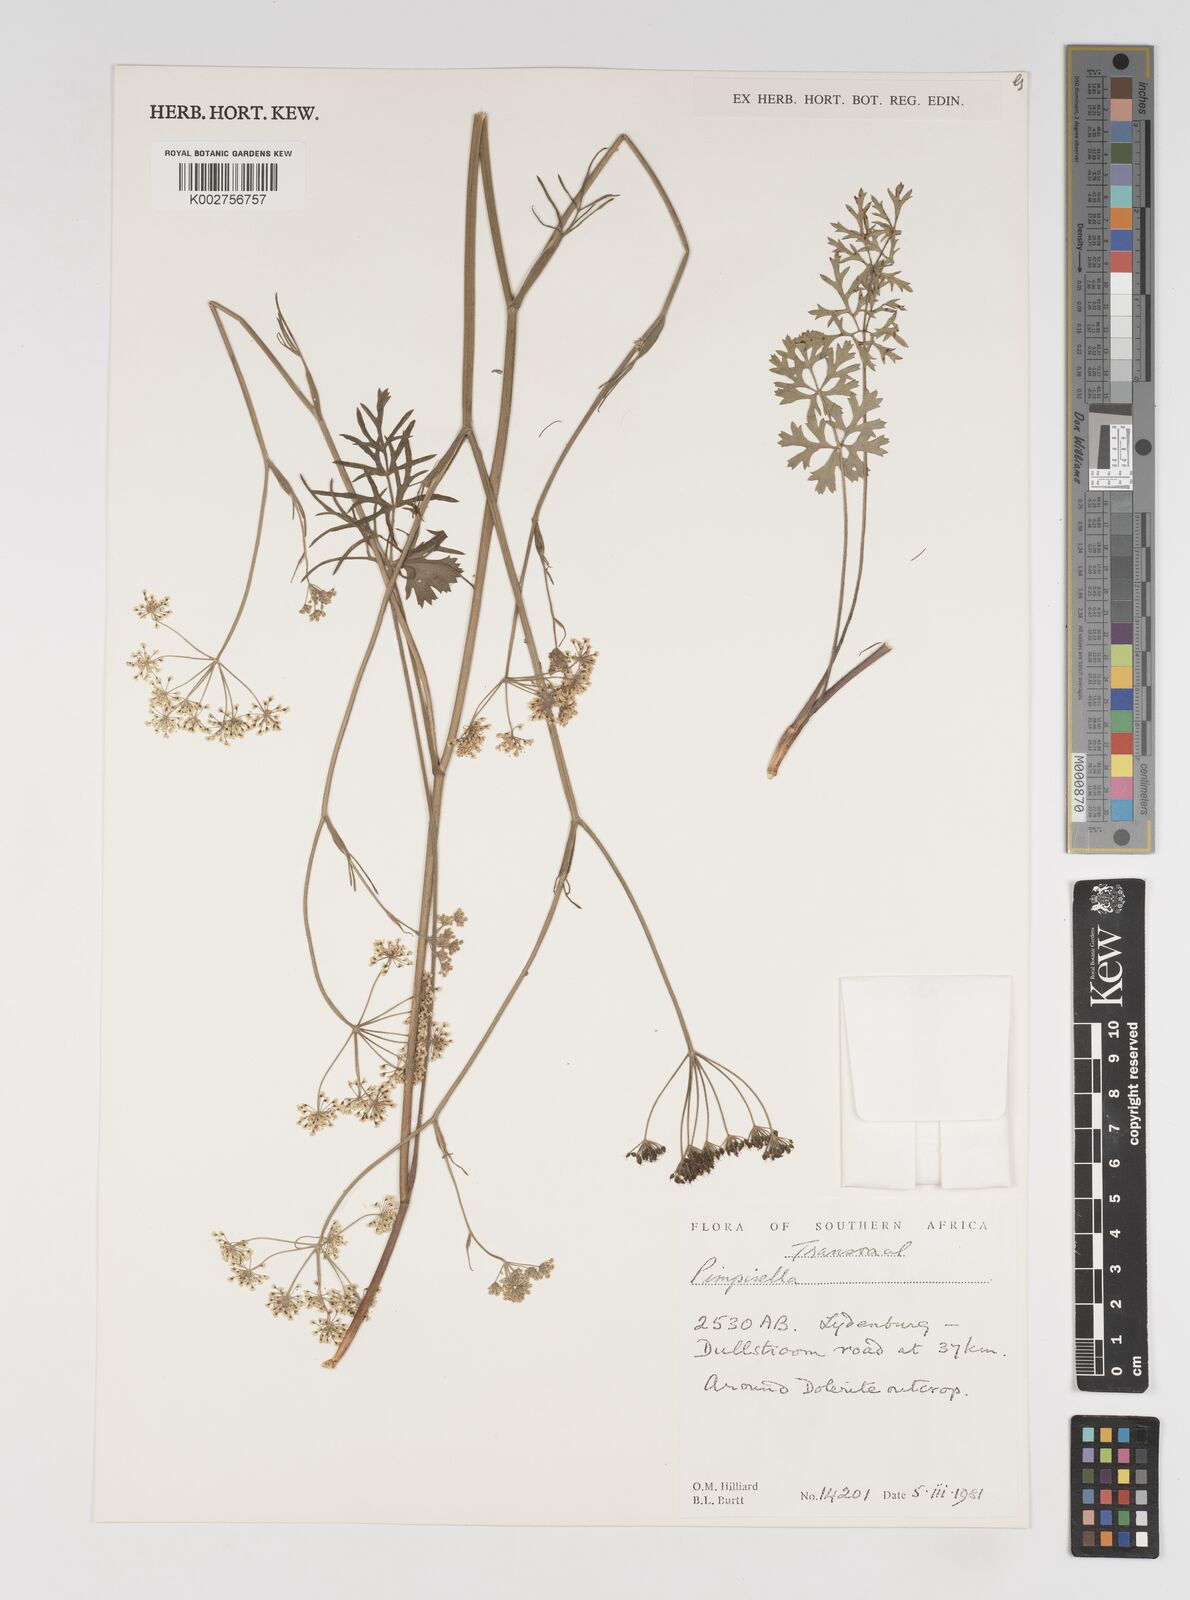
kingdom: Plantae
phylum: Tracheophyta
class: Magnoliopsida
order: Apiales
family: Apiaceae
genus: Pimpinella
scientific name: Pimpinella
